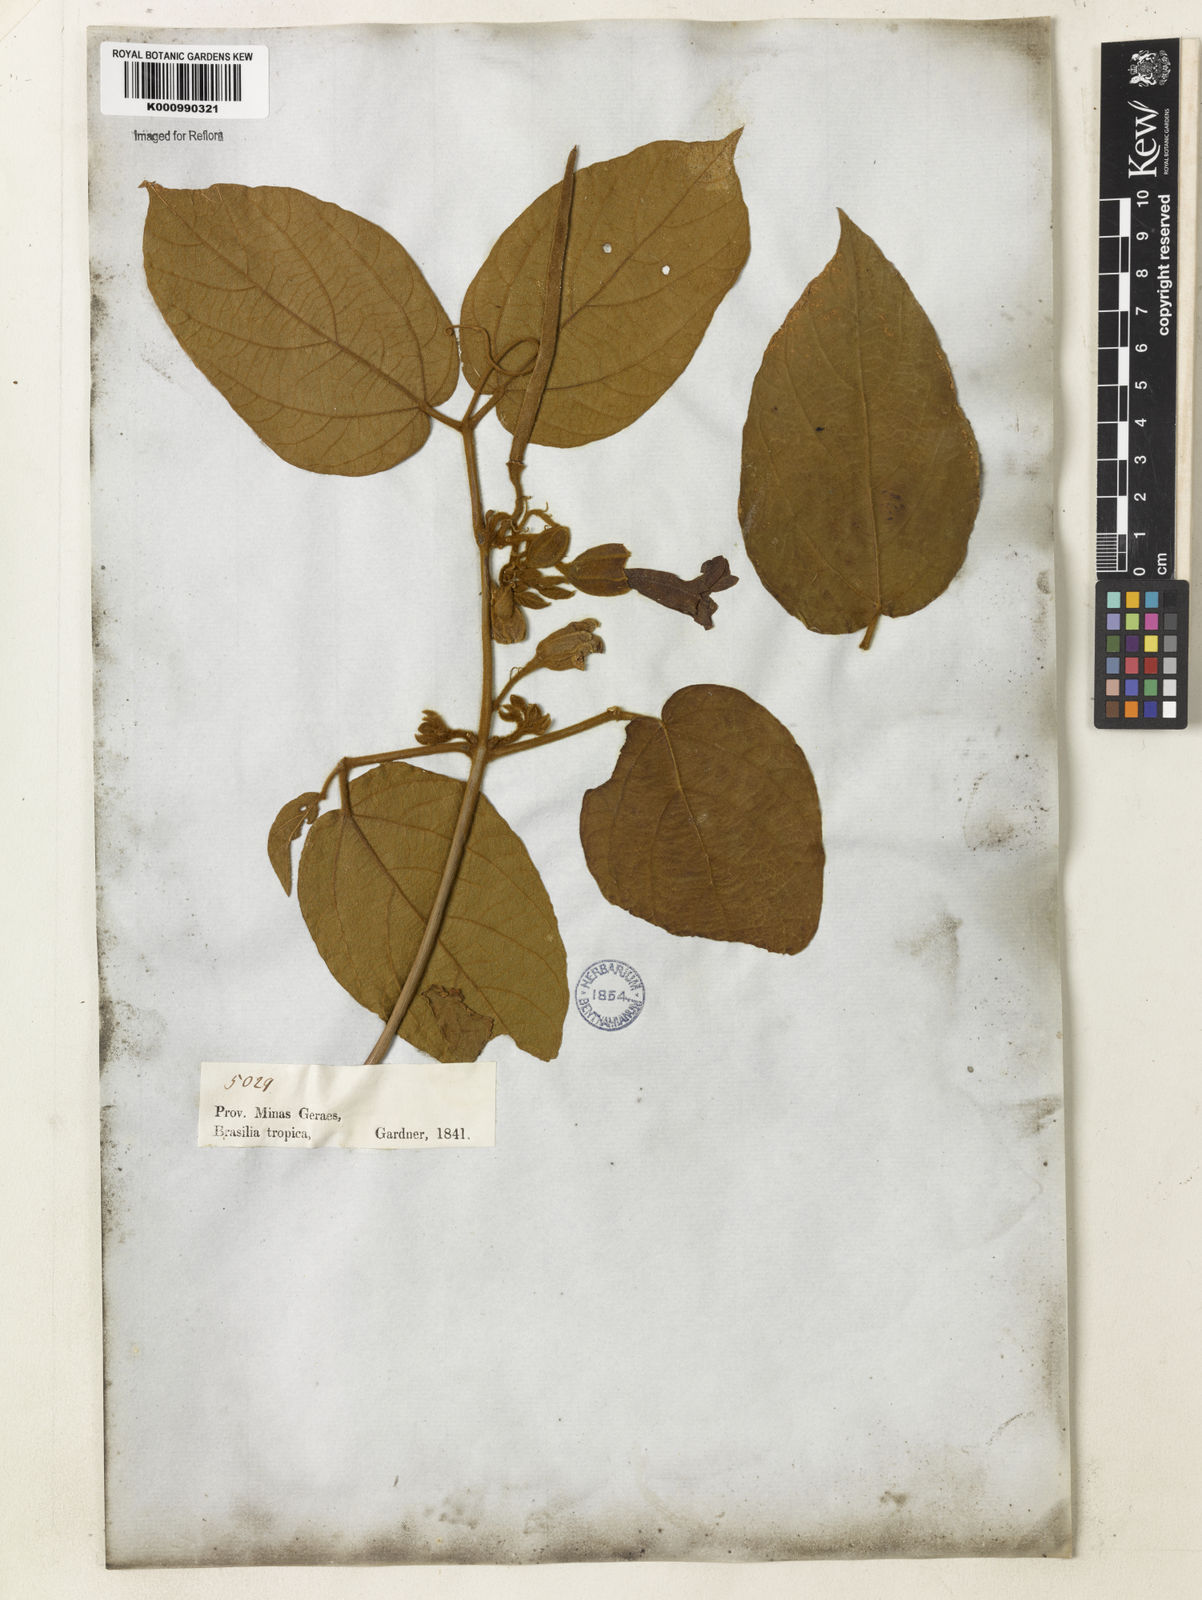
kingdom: Plantae
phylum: Tracheophyta
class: Magnoliopsida
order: Lamiales
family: Bignoniaceae
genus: Stizophyllum
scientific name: Stizophyllum perforatum
